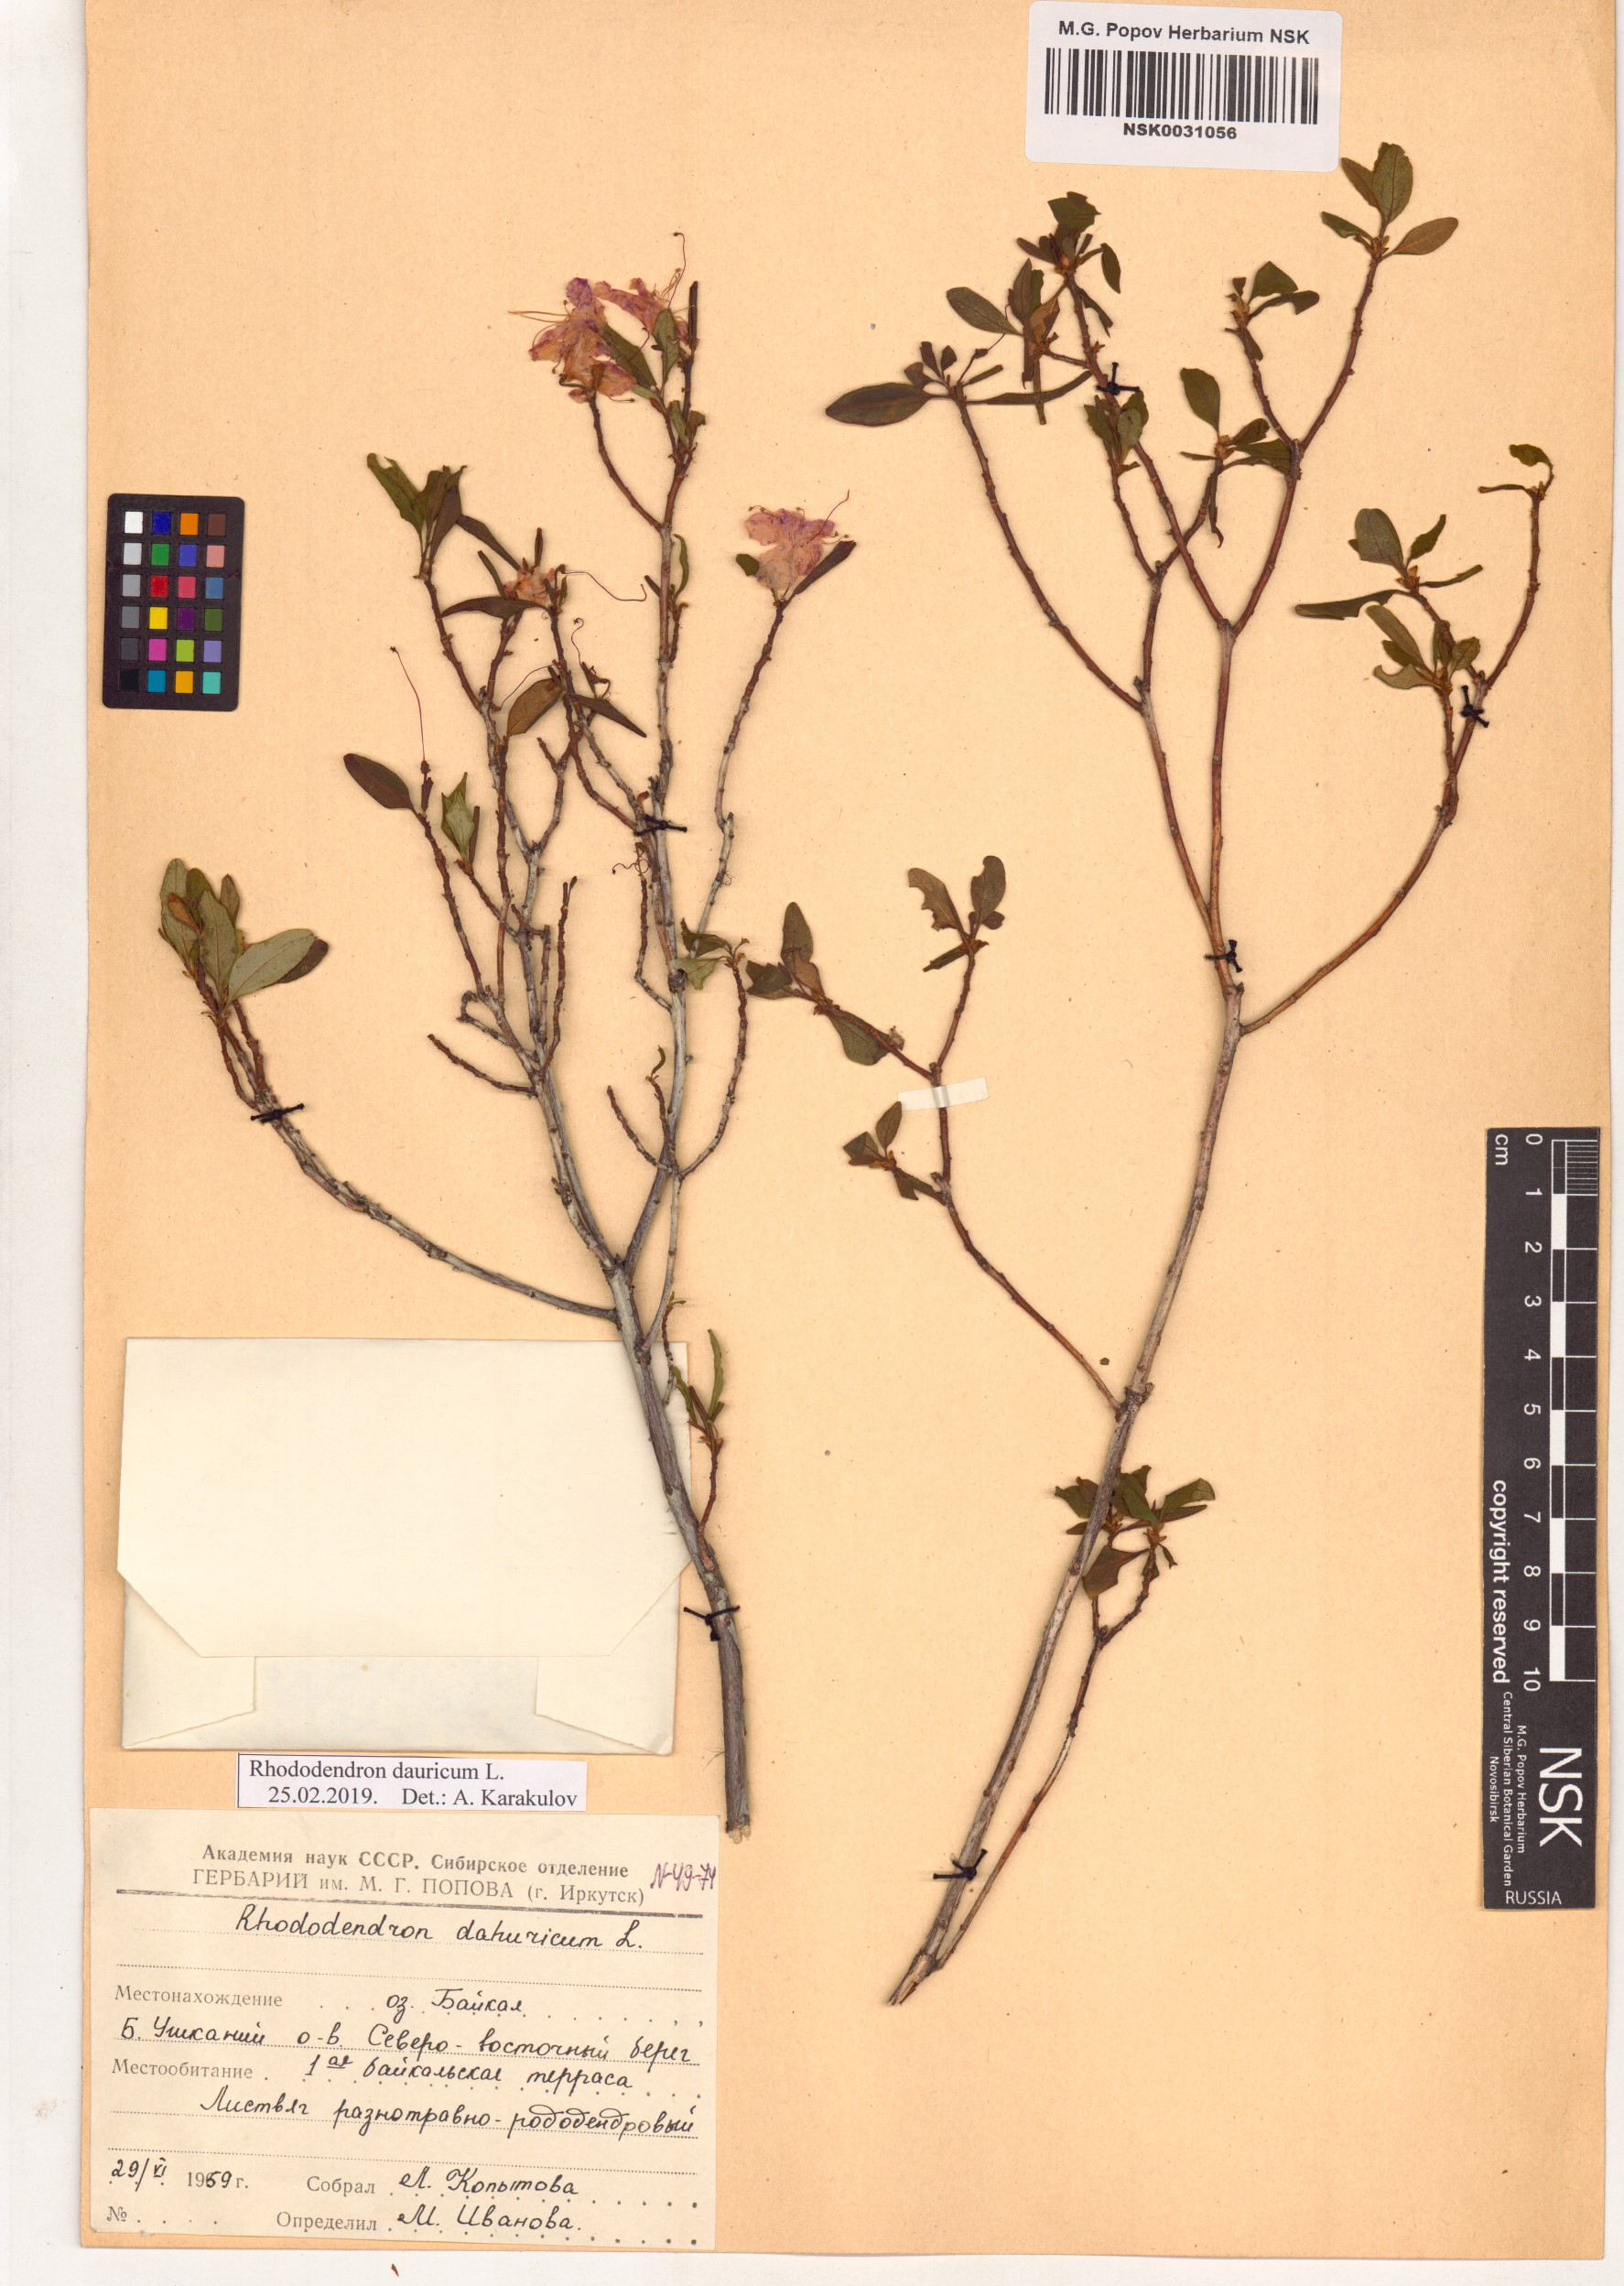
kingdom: Plantae
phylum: Tracheophyta
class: Magnoliopsida
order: Ericales
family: Ericaceae
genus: Rhododendron
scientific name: Rhododendron dauricum
